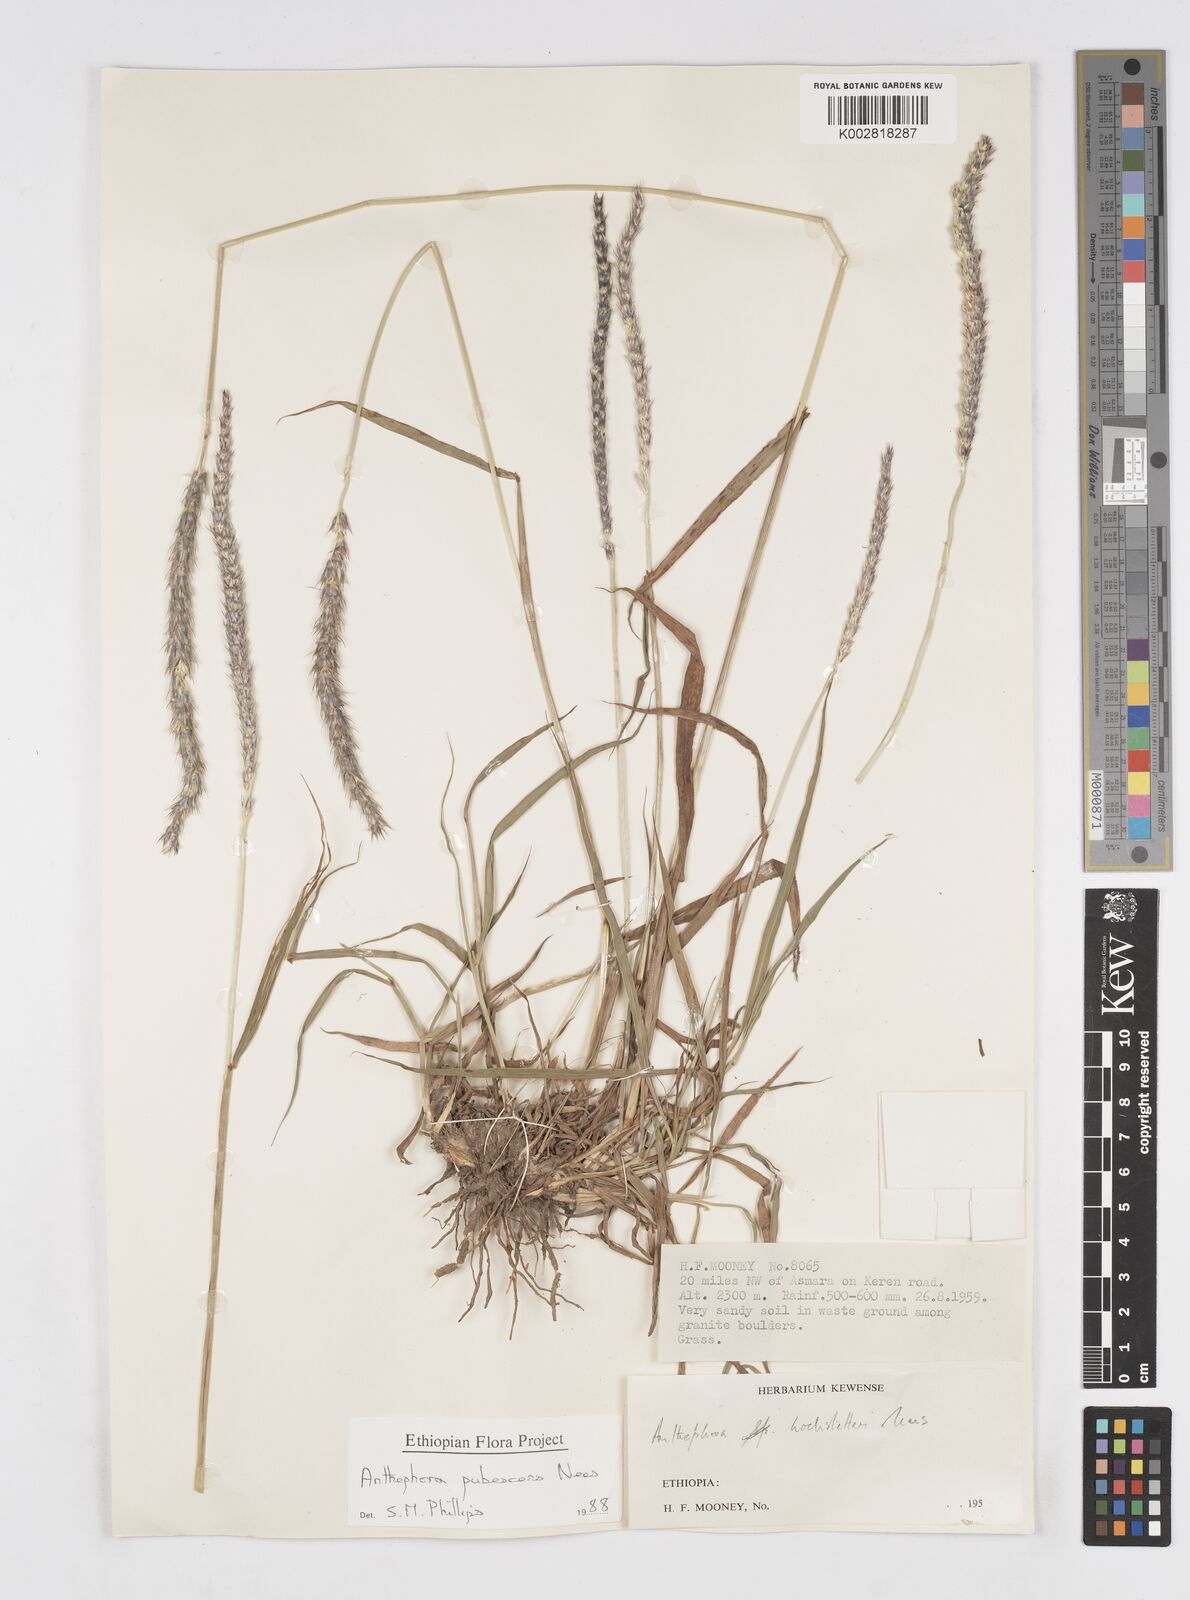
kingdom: Plantae
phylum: Tracheophyta
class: Liliopsida
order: Poales
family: Poaceae
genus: Anthephora
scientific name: Anthephora pubescens
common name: Wool grass
